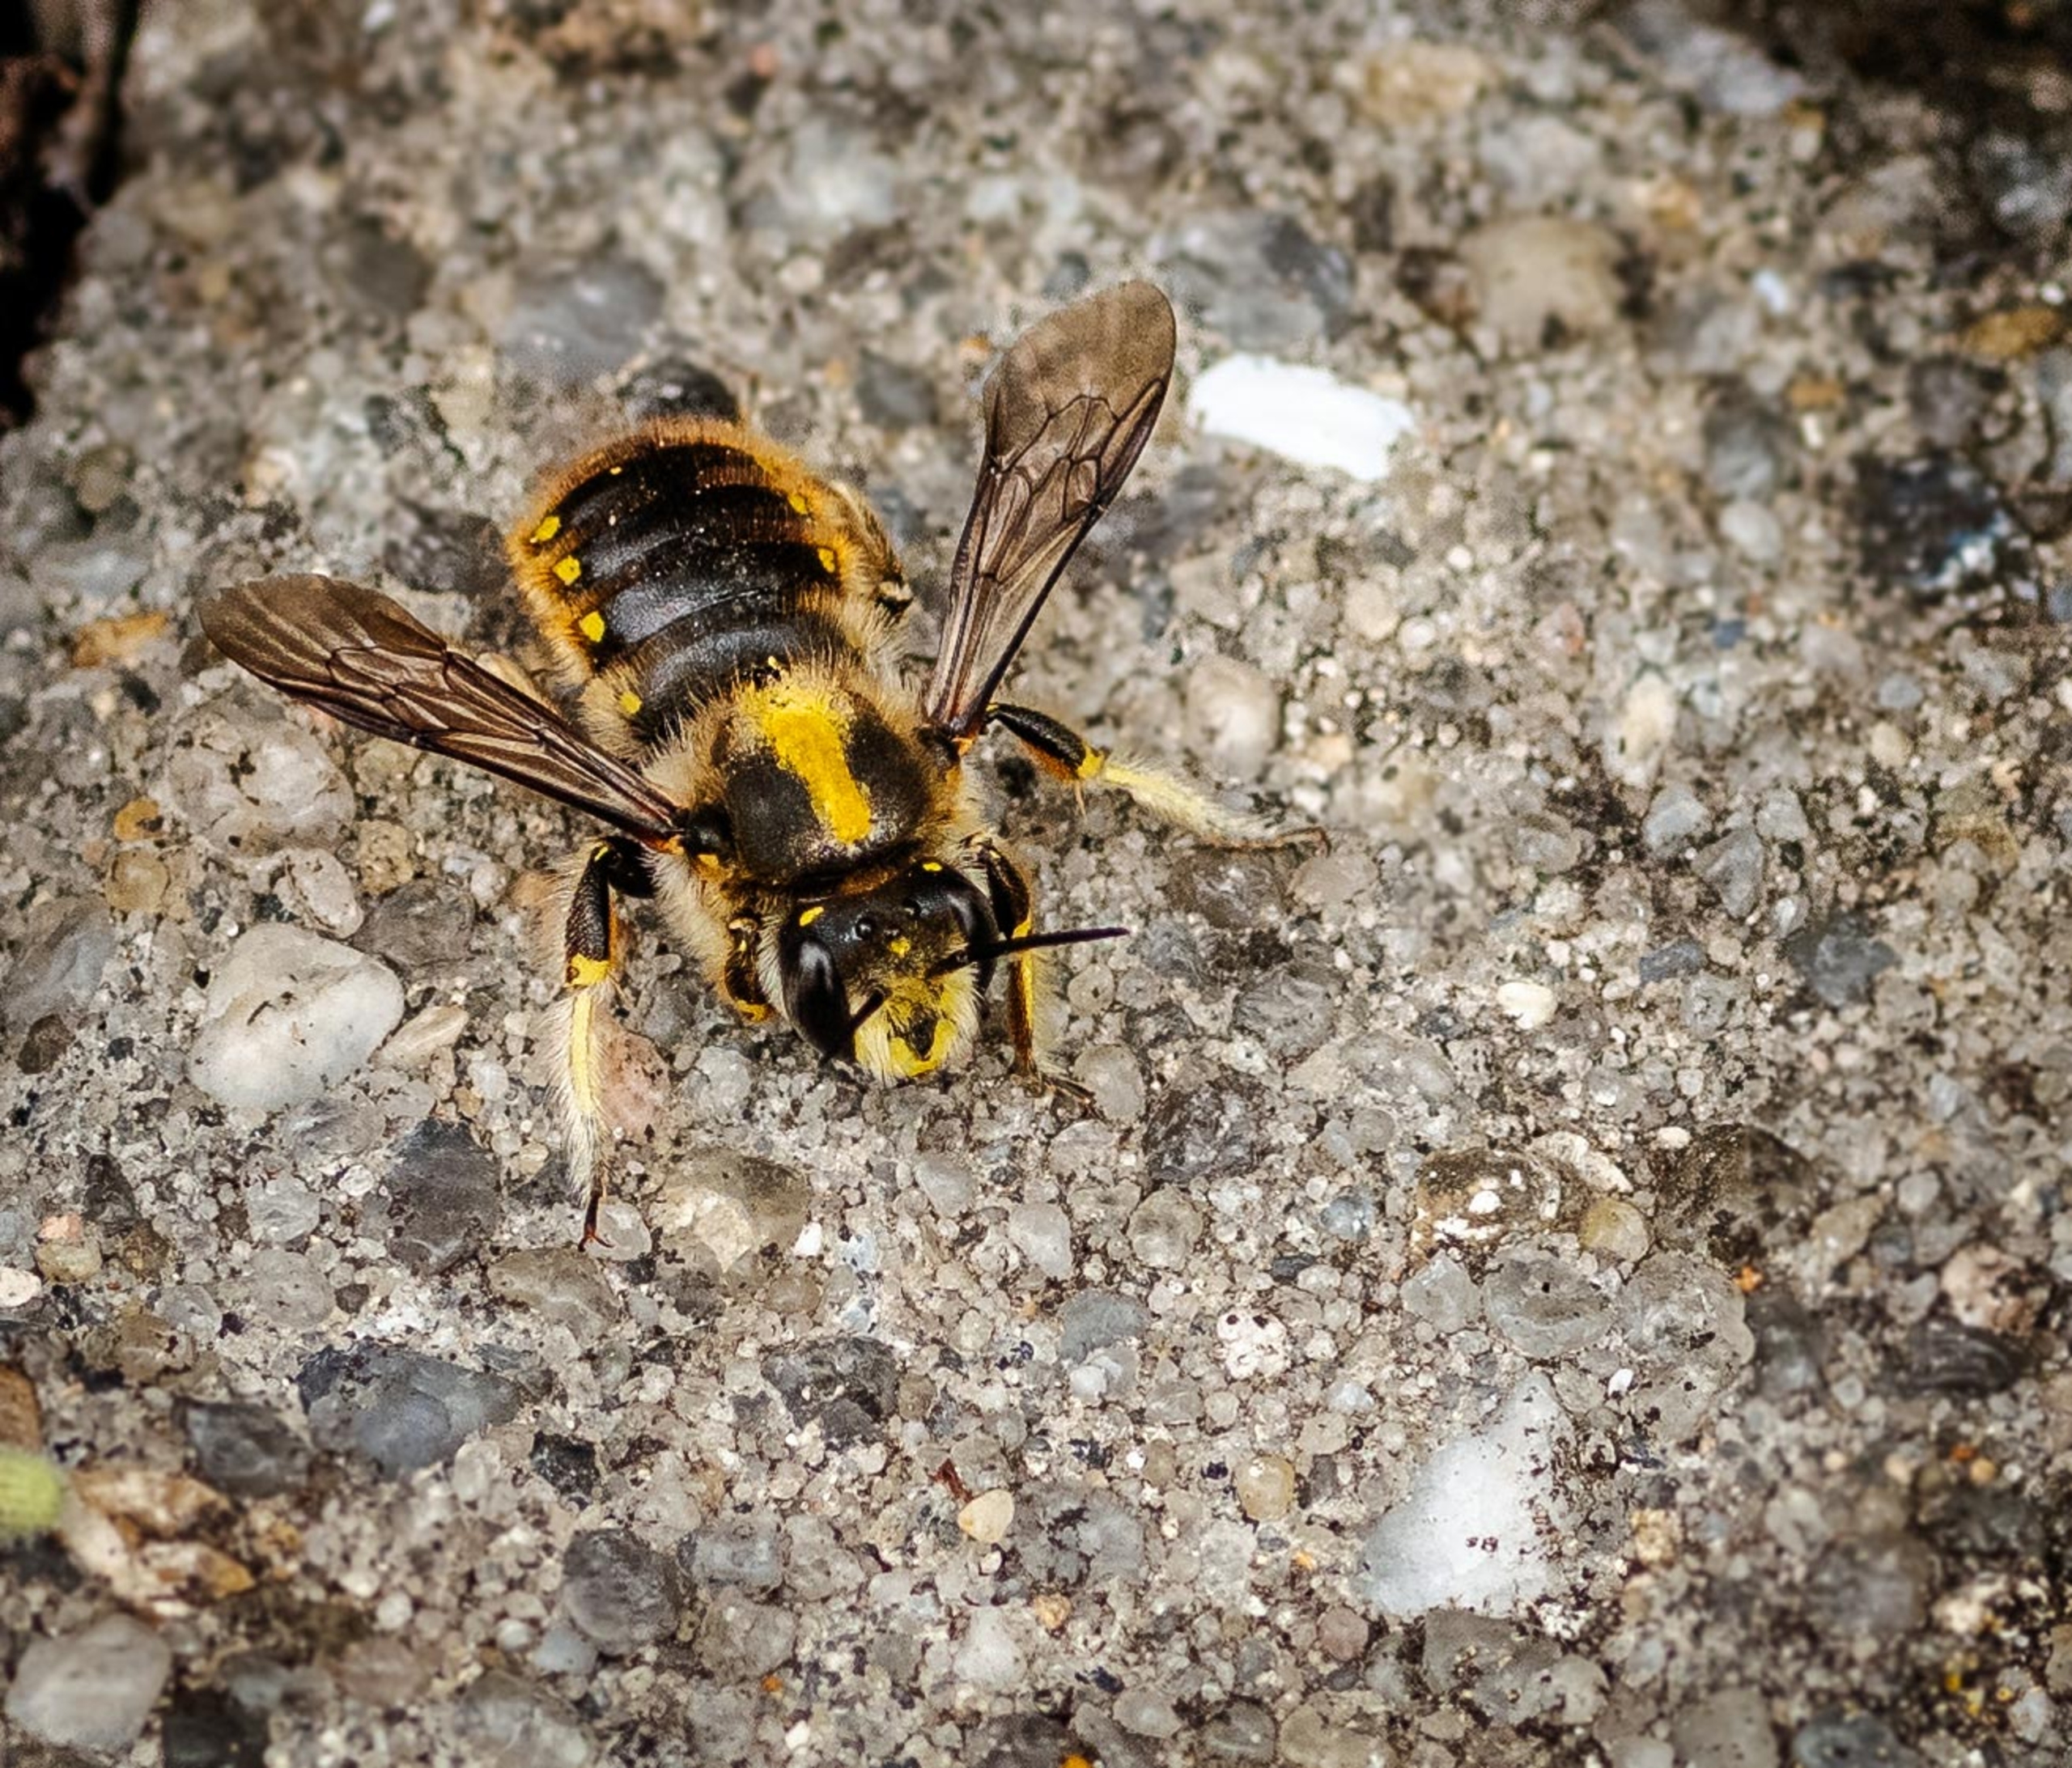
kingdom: Animalia
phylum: Arthropoda
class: Insecta
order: Hymenoptera
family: Megachilidae
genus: Anthidium
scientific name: Anthidium manicatum
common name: Stor uldbi
